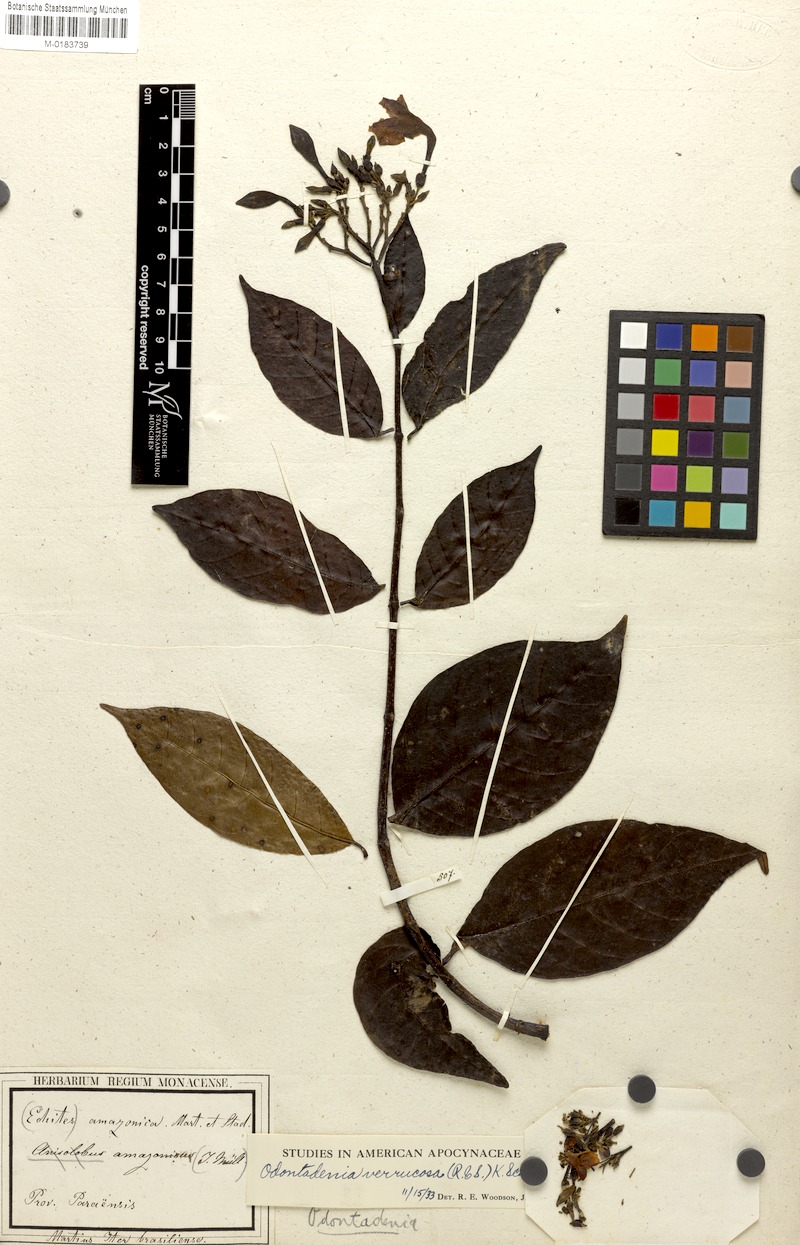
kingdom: Plantae
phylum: Tracheophyta
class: Magnoliopsida
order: Gentianales
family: Apocynaceae
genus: Odontadenia
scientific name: Odontadenia verrucosa
